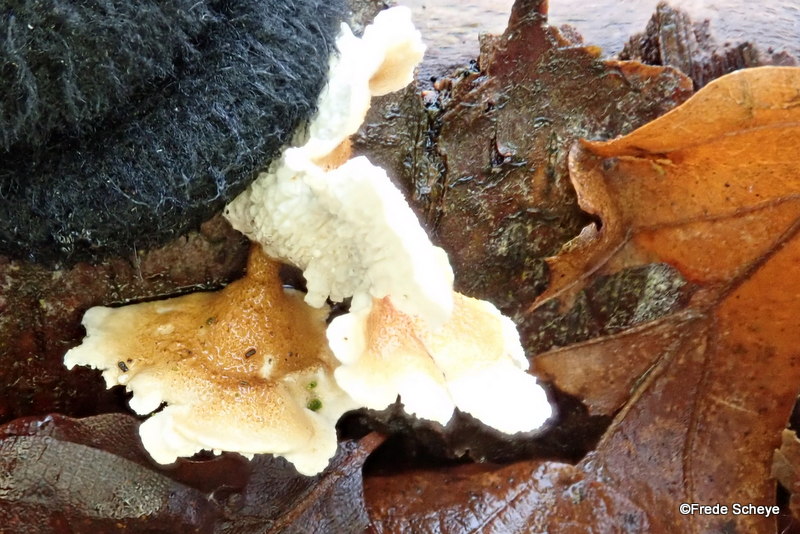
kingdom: Fungi
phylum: Basidiomycota
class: Agaricomycetes
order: Amylocorticiales
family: Amylocorticiaceae
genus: Plicaturopsis
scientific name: Plicaturopsis crispa
